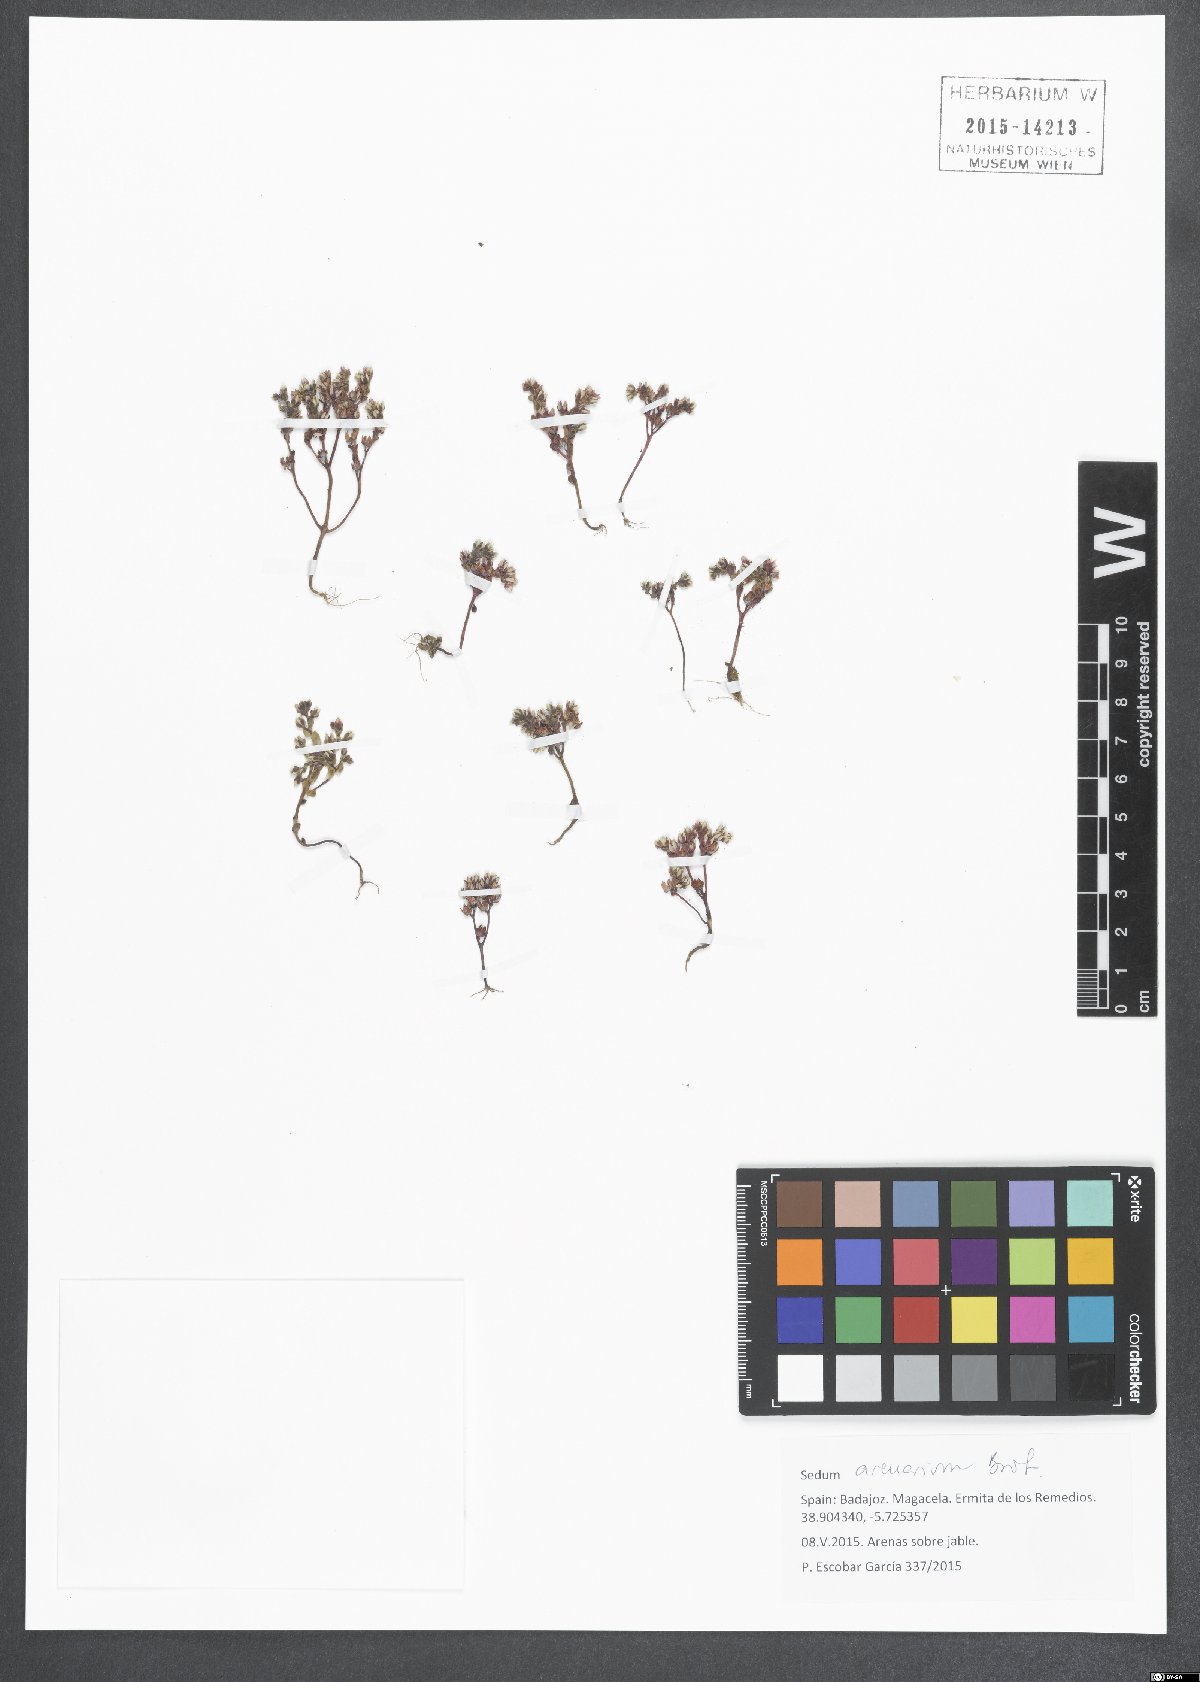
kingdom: Plantae
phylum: Tracheophyta
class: Magnoliopsida
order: Saxifragales
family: Crassulaceae
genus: Sedum
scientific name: Sedum arenarium
